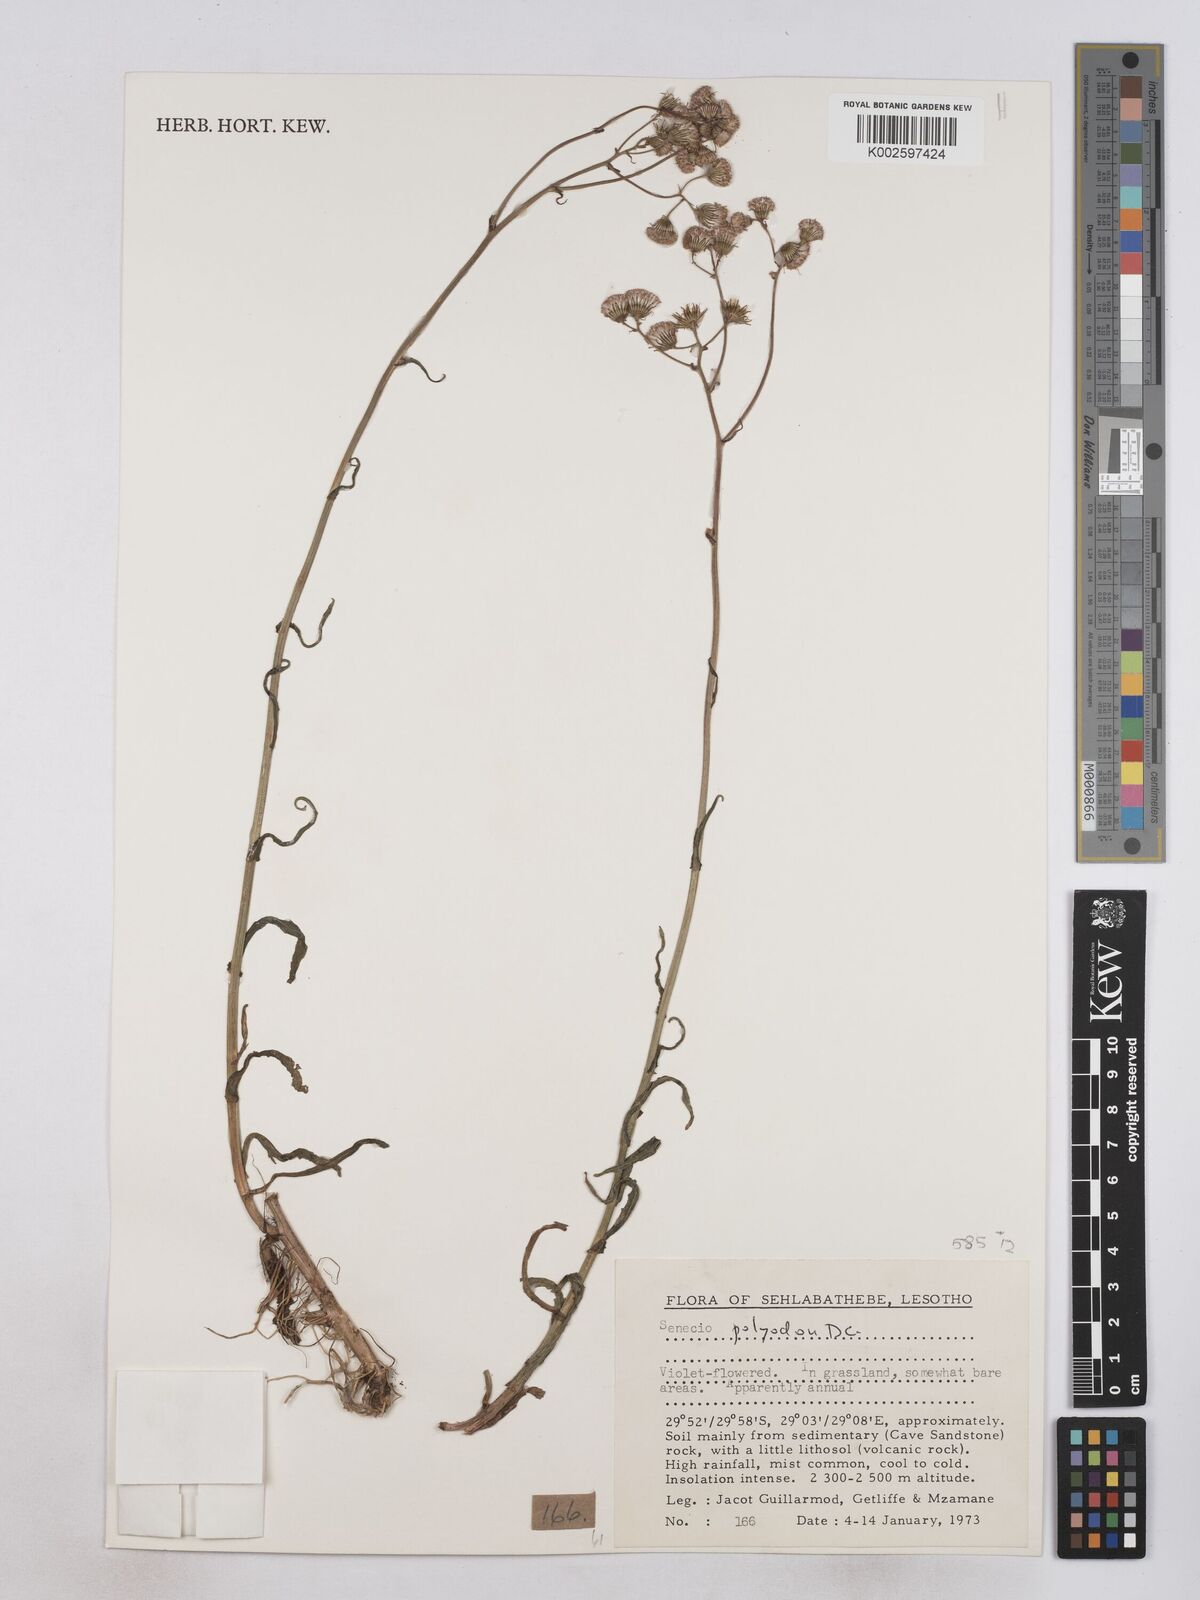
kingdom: Plantae
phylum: Tracheophyta
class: Magnoliopsida
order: Asterales
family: Asteraceae
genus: Senecio
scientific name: Senecio polyodon
